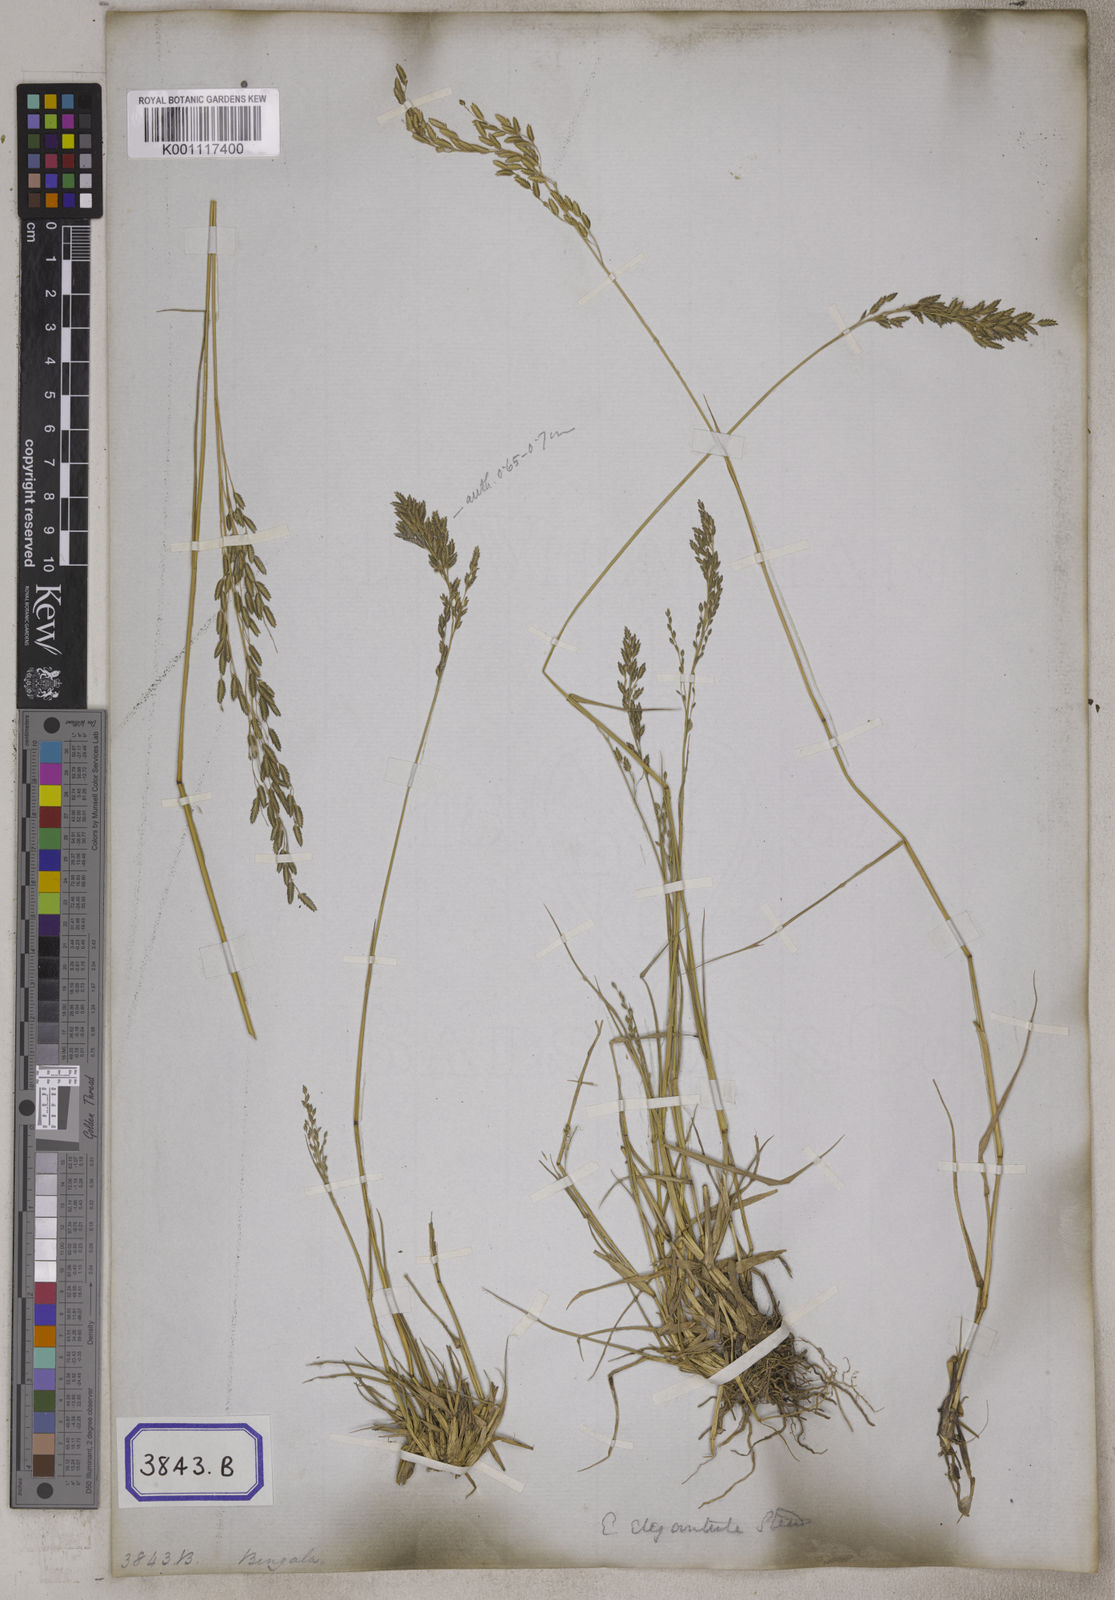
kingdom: Plantae
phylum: Tracheophyta
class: Liliopsida
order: Poales
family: Poaceae
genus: Eragrostis
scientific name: Eragrostis
